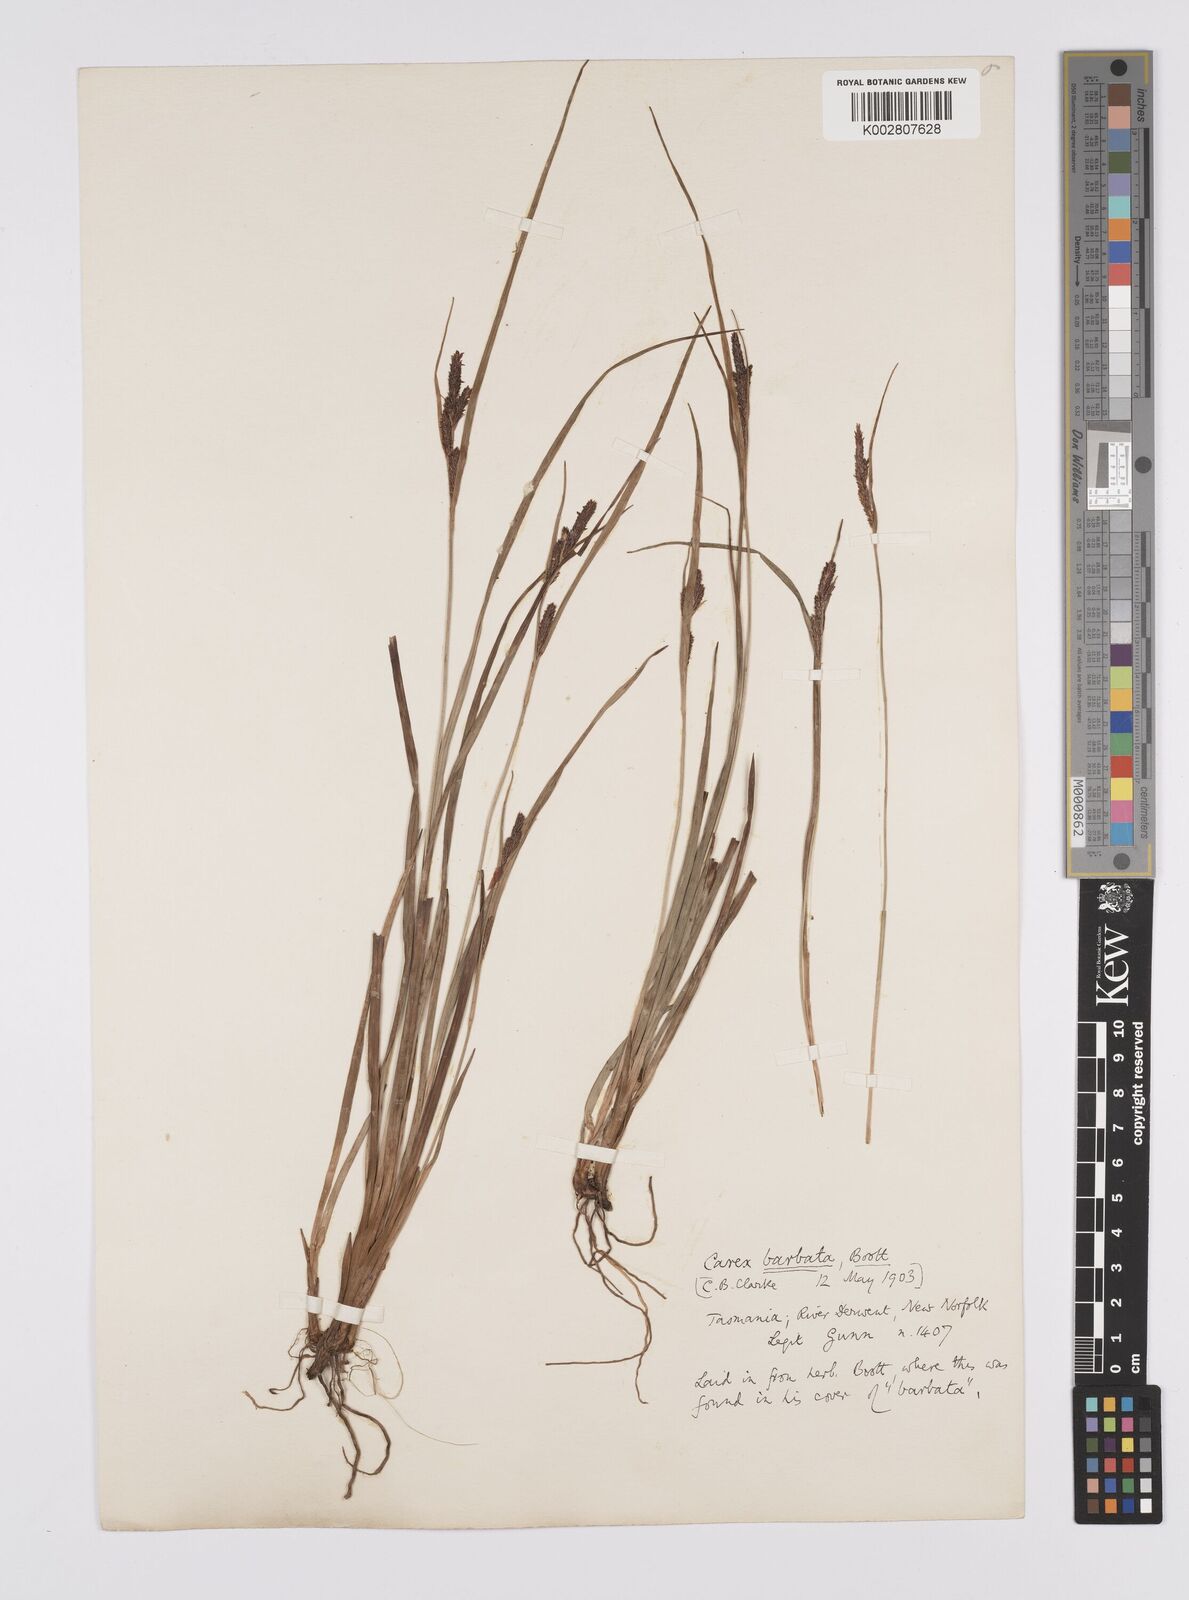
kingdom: Plantae
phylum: Tracheophyta
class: Liliopsida
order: Poales
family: Cyperaceae
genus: Carex
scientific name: Carex barbata
